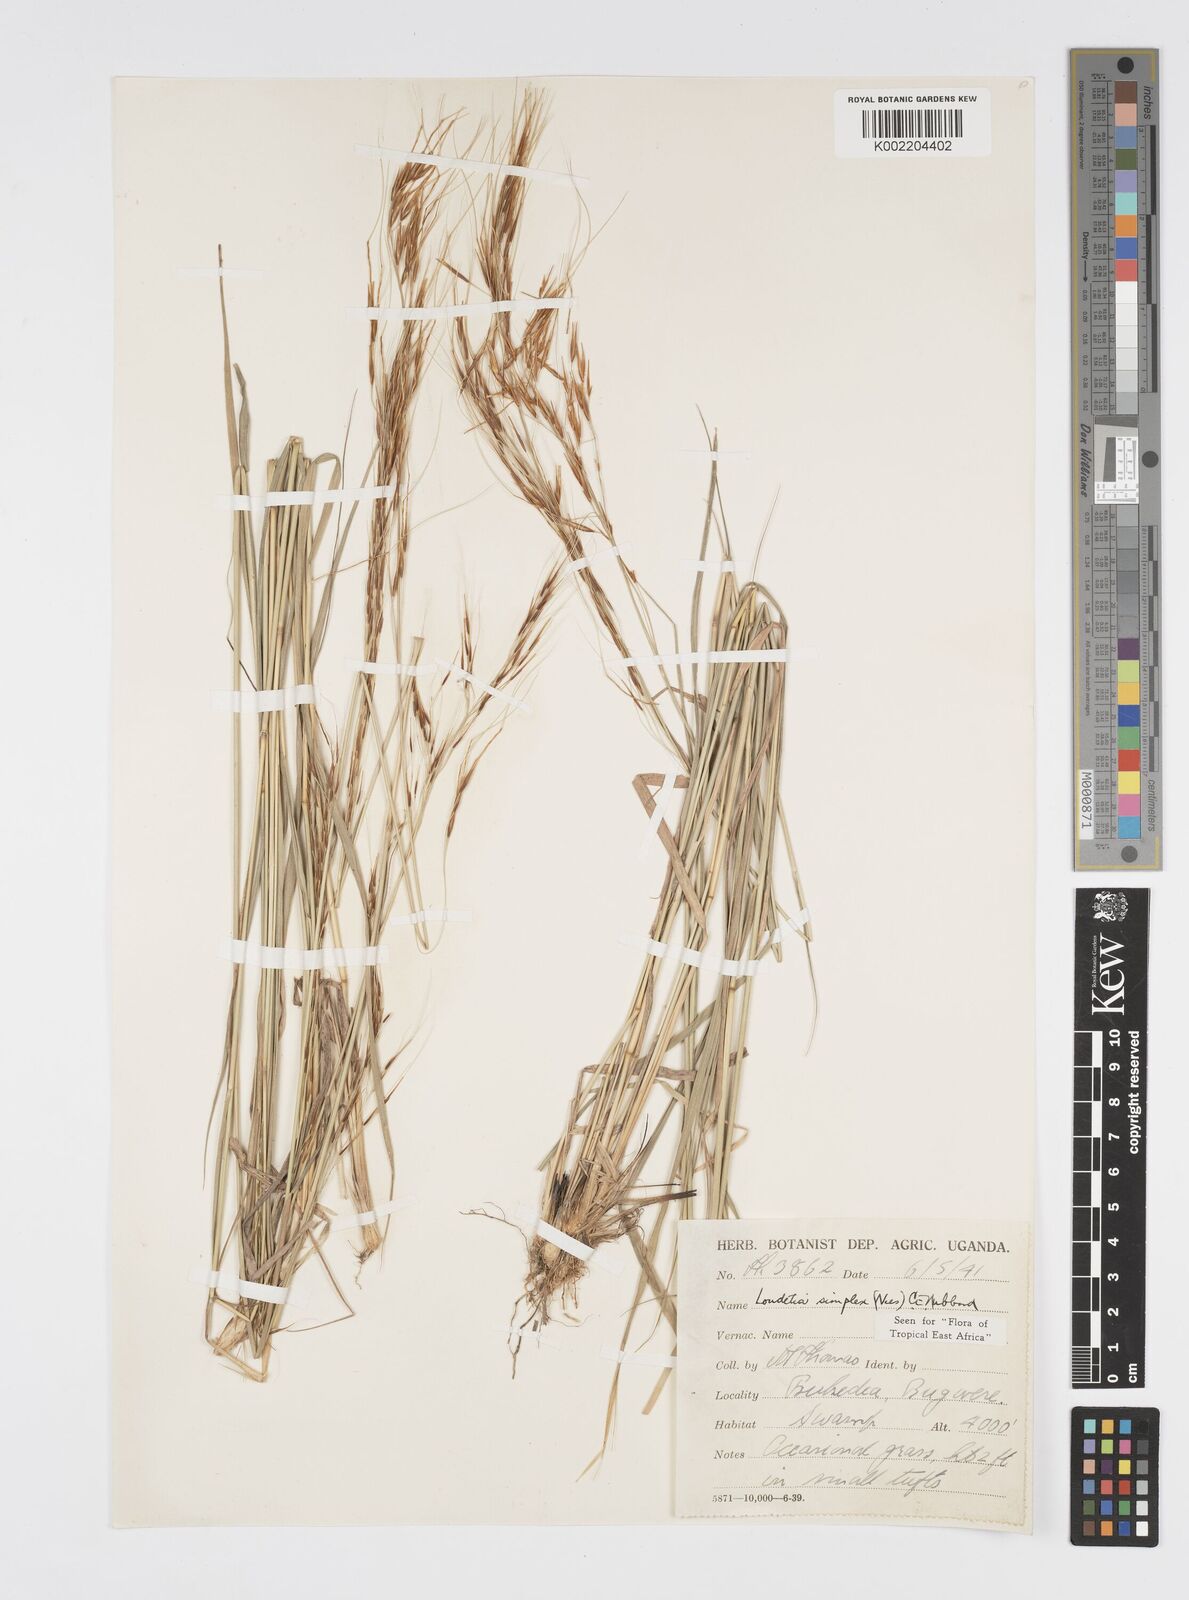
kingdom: Plantae
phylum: Tracheophyta
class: Liliopsida
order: Poales
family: Poaceae
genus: Loudetia
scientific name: Loudetia simplex
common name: Common russet grass
